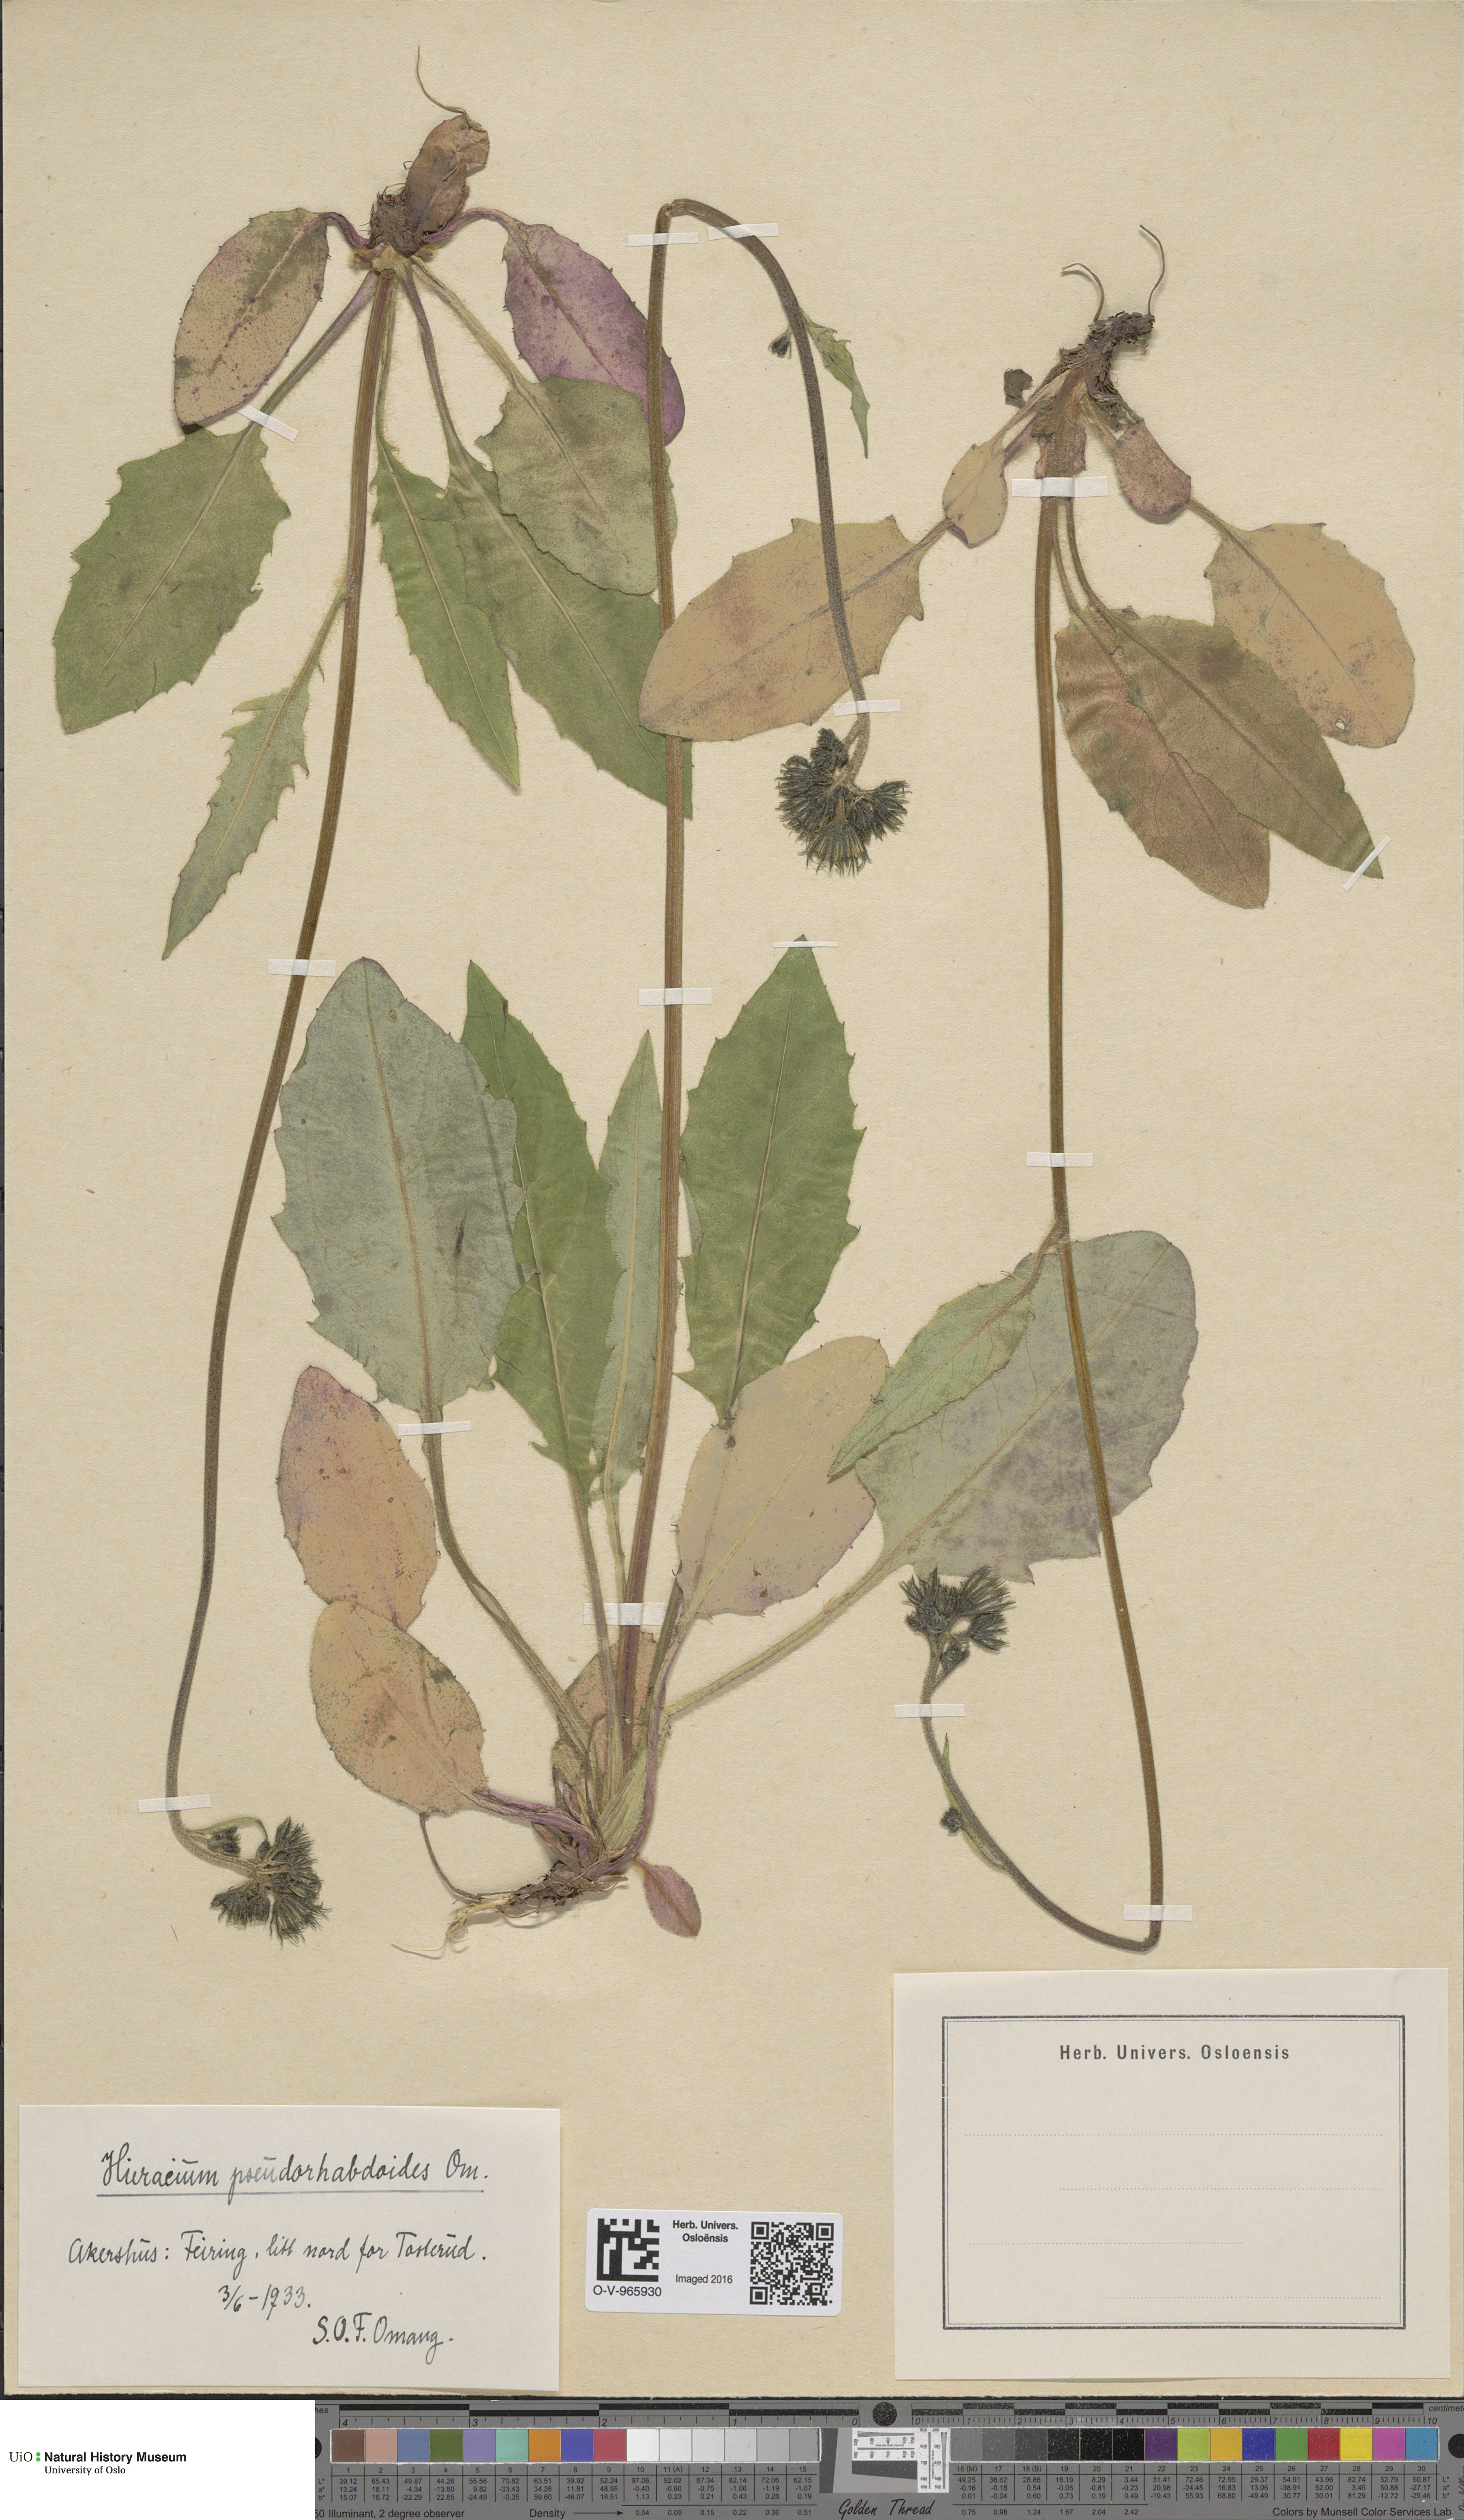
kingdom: Plantae
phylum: Tracheophyta
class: Magnoliopsida
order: Asterales
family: Asteraceae
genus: Hieracium
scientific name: Hieracium
